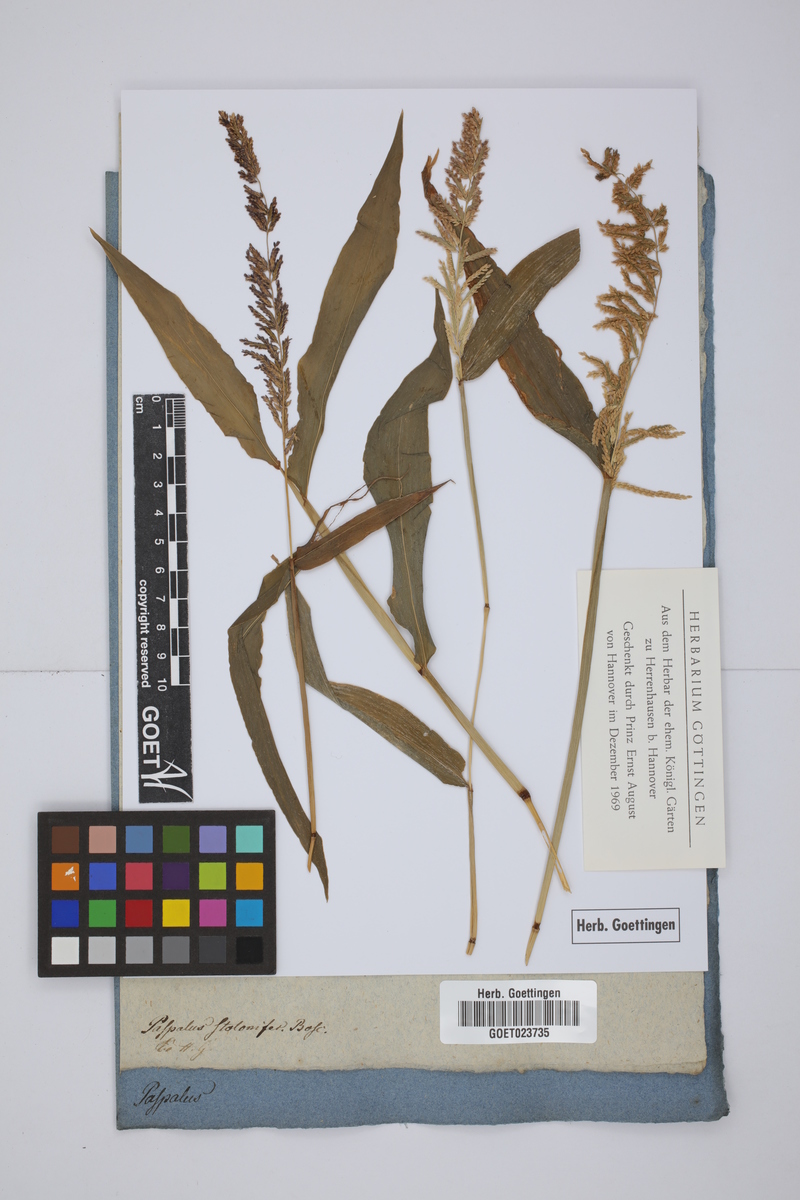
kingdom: Plantae
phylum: Tracheophyta
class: Liliopsida
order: Poales
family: Poaceae
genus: Paspalum
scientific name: Paspalum racemosum
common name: Peruvian paspalum
